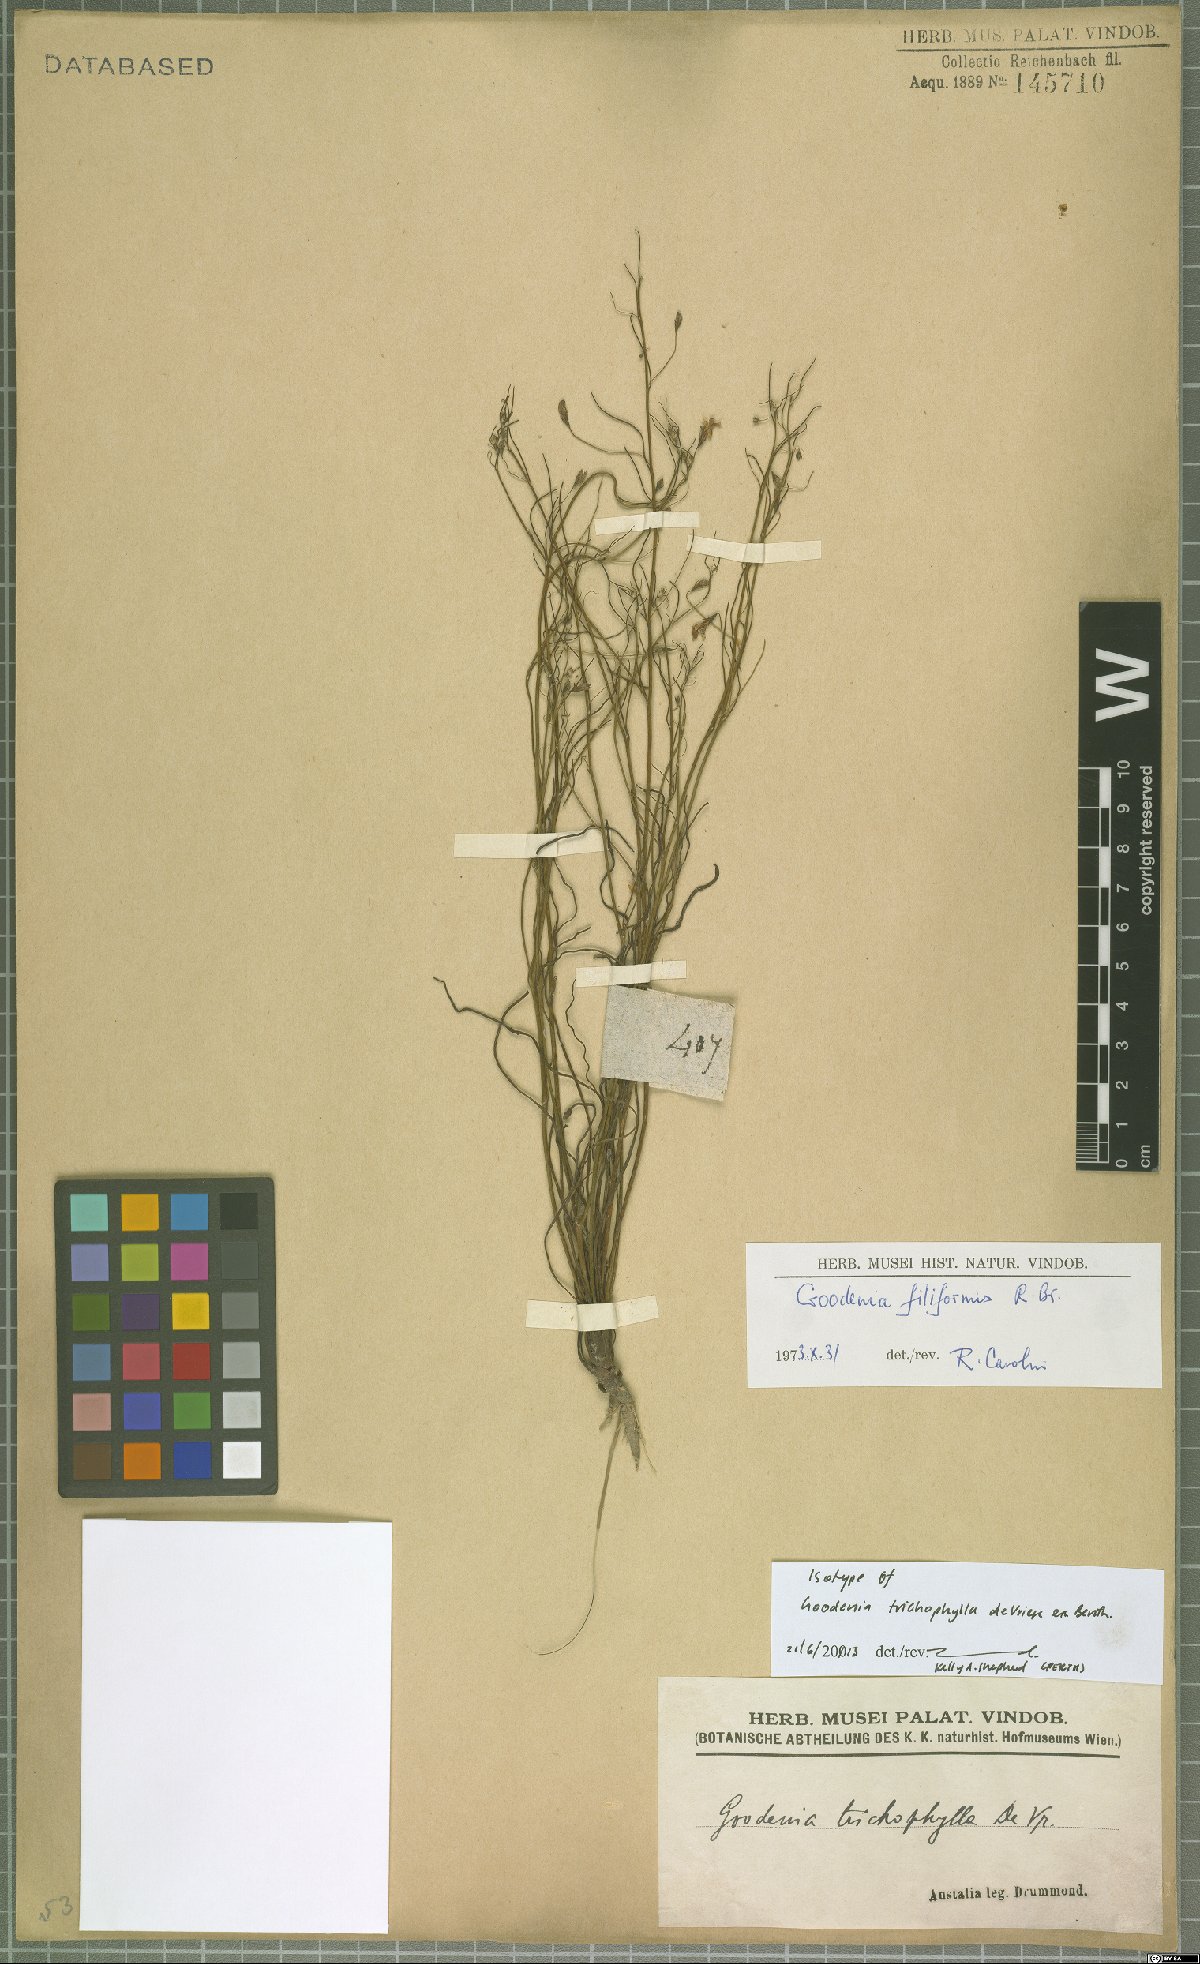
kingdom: Plantae
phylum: Tracheophyta
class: Magnoliopsida
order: Asterales
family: Goodeniaceae
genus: Goodenia
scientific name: Goodenia filiformis
